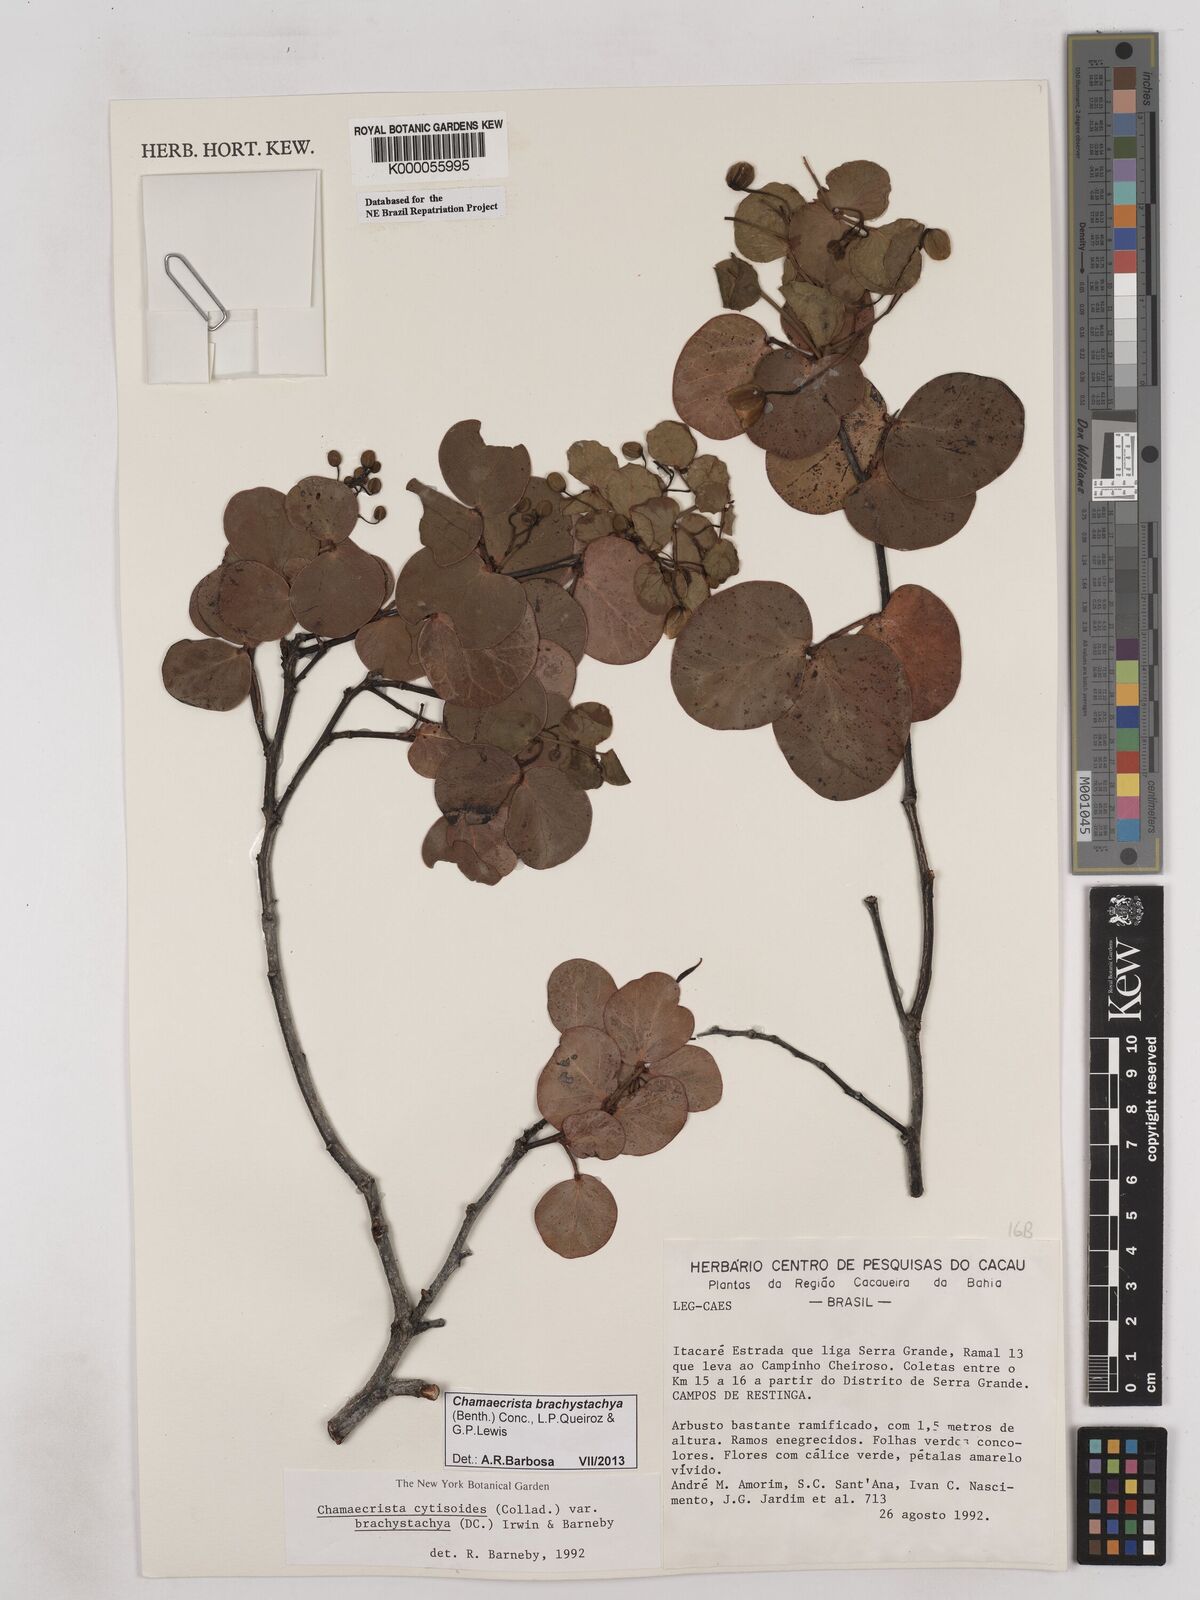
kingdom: Plantae
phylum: Tracheophyta
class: Magnoliopsida
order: Fabales
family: Fabaceae
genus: Chamaecrista
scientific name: Chamaecrista cytisoides
